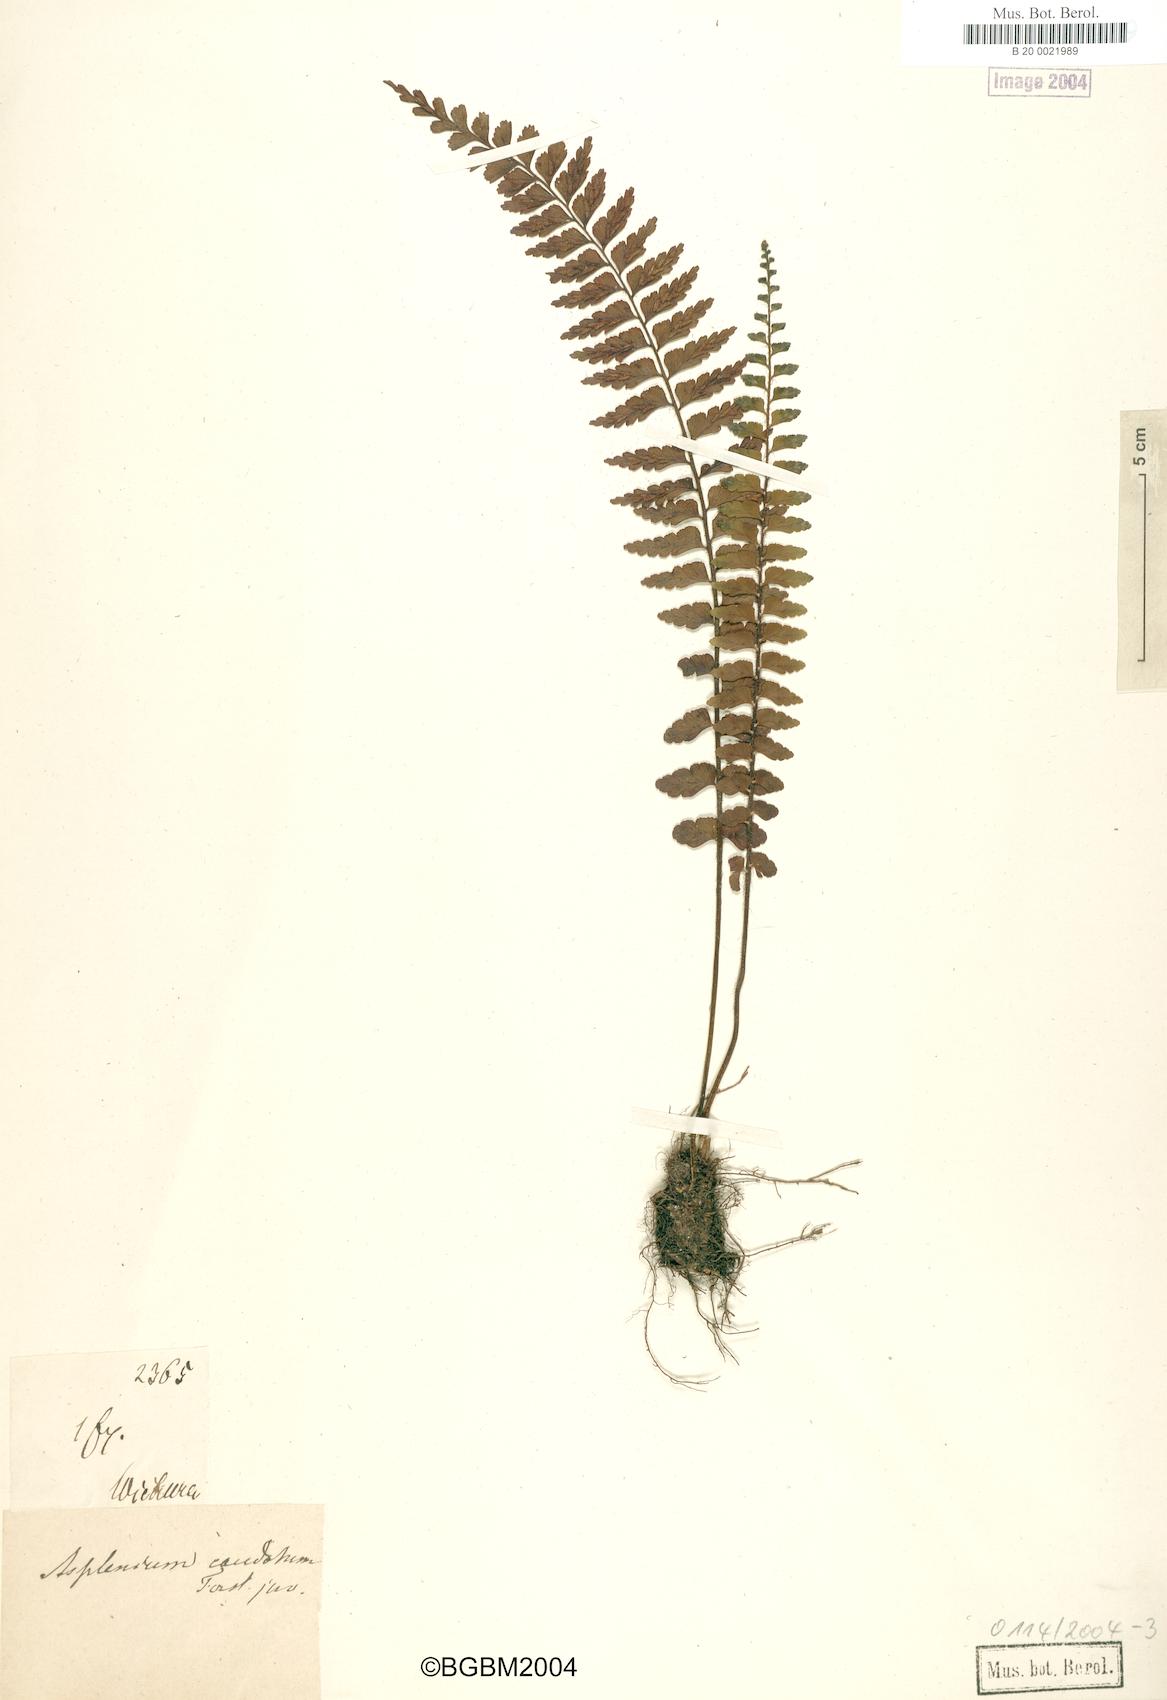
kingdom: Plantae
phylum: Tracheophyta
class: Polypodiopsida
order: Polypodiales
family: Aspleniaceae
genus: Asplenium
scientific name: Asplenium caudatum
